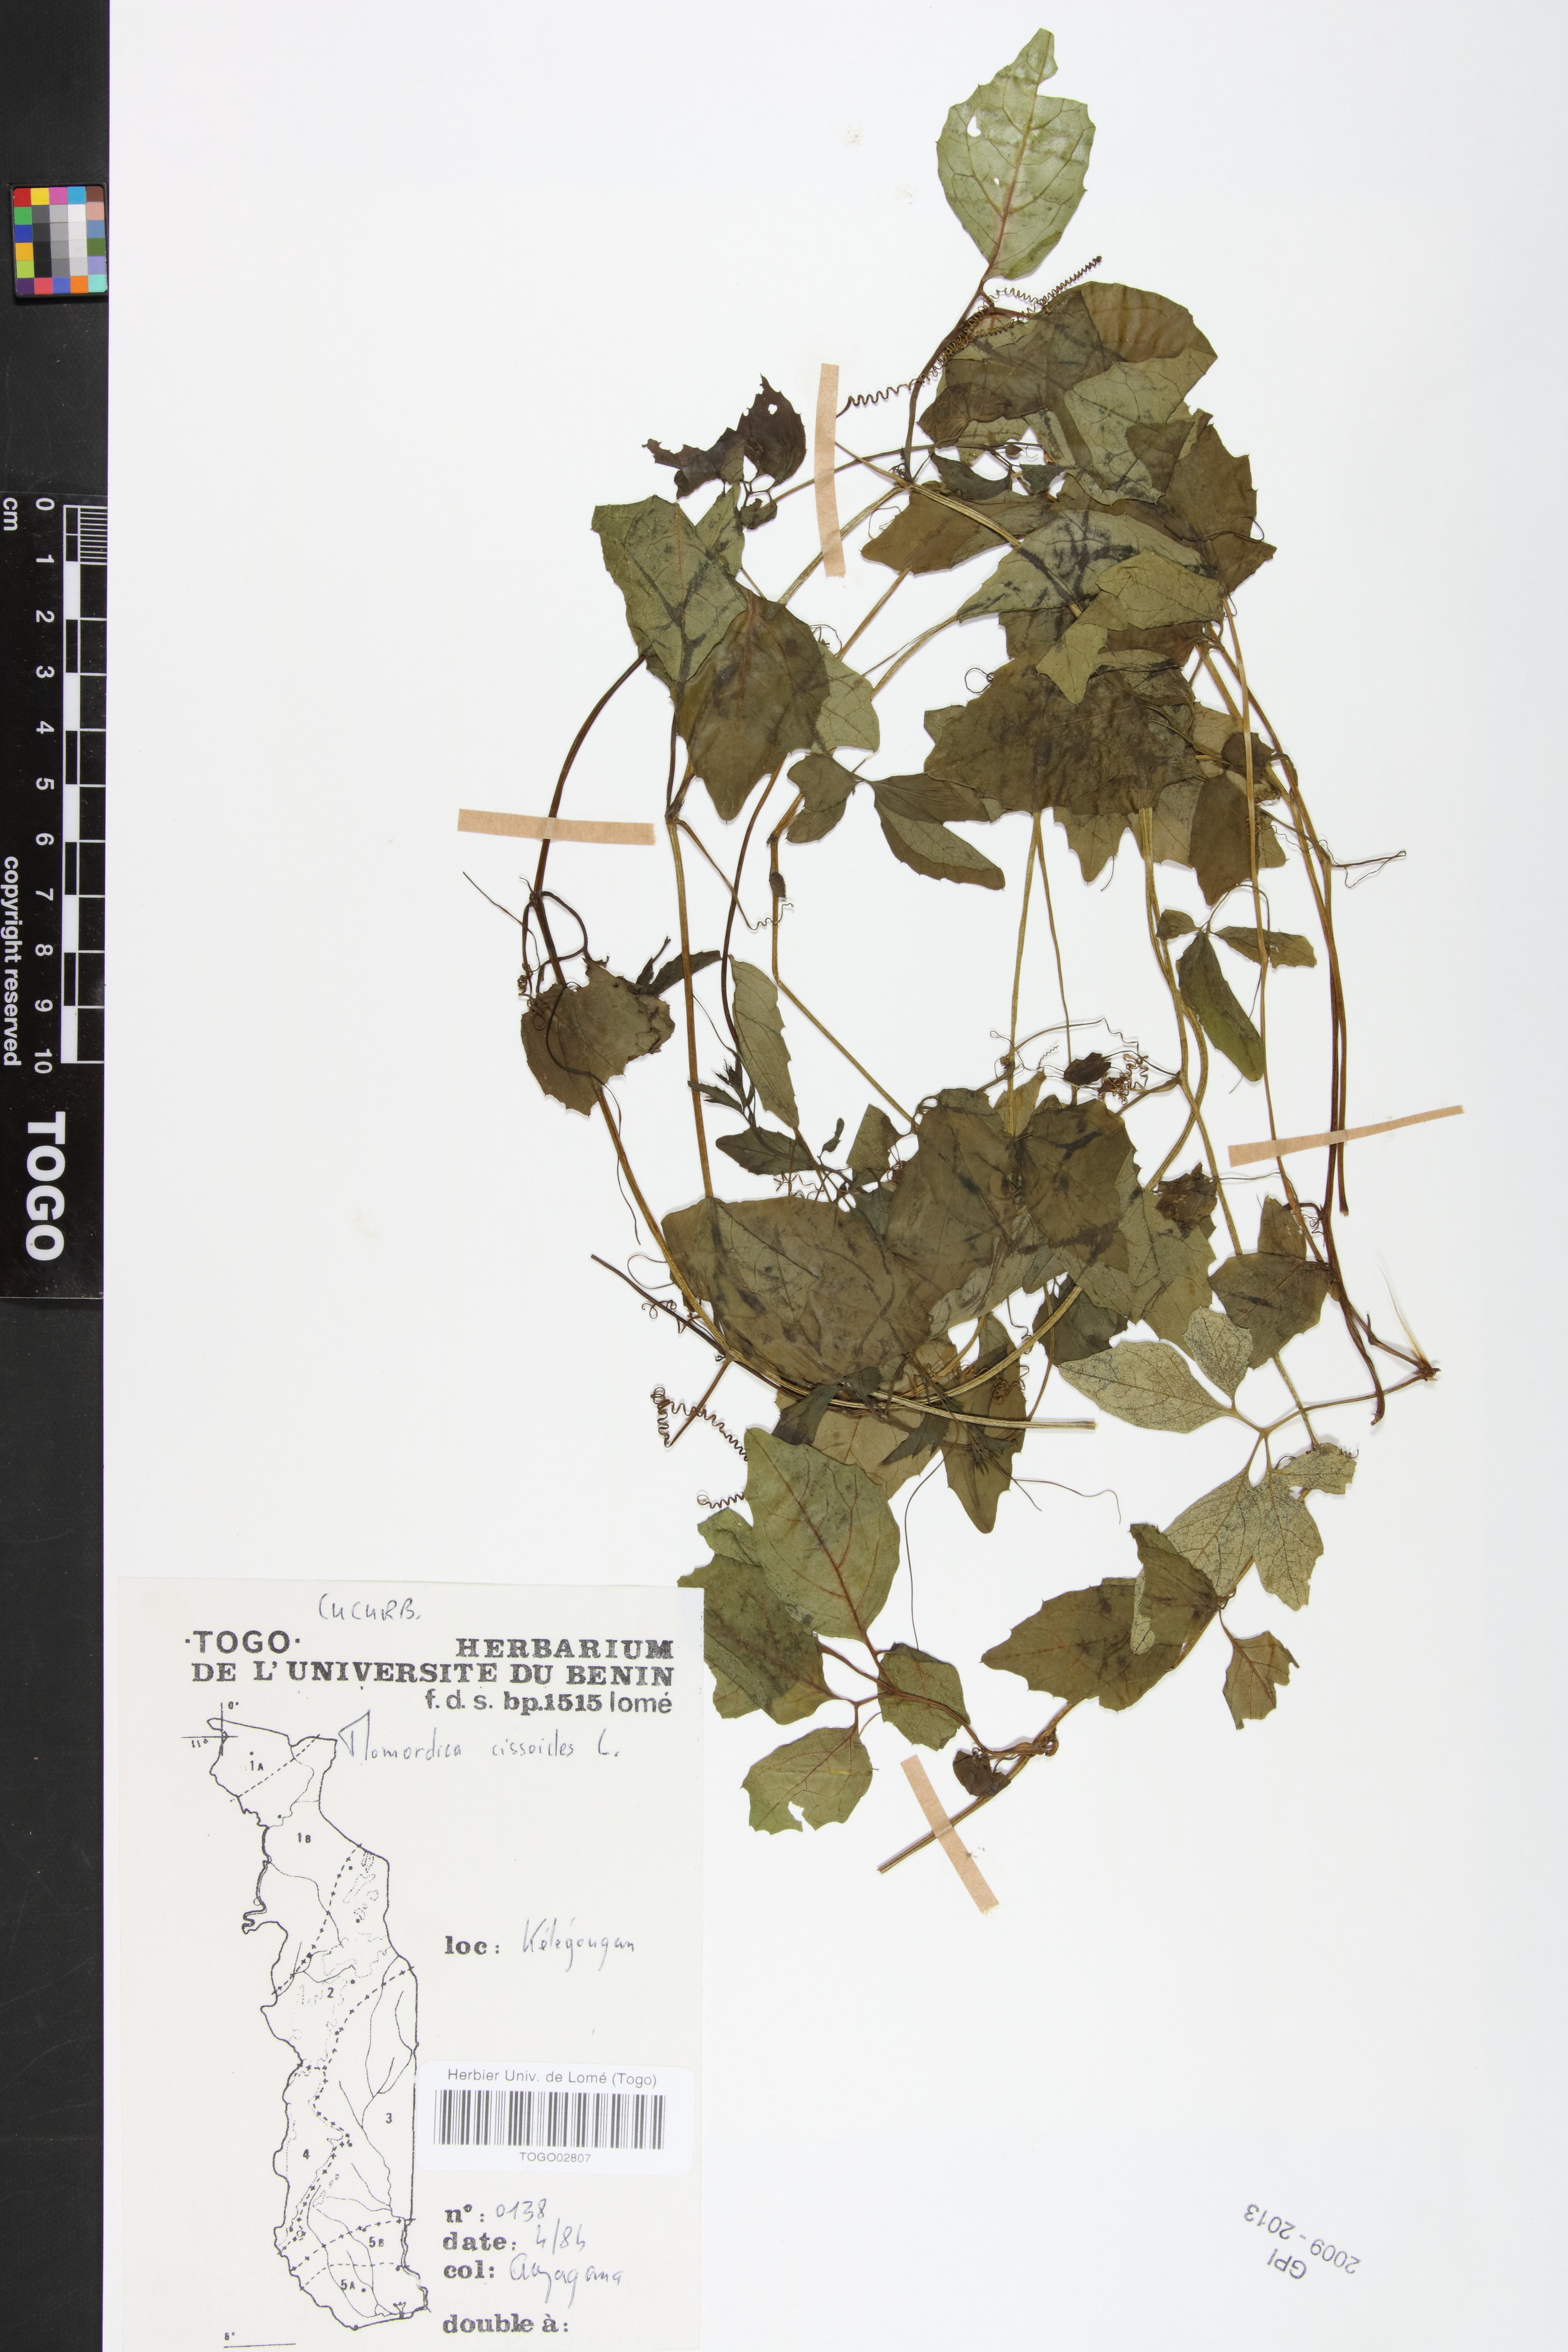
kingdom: Plantae
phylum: Tracheophyta
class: Magnoliopsida
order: Cucurbitales
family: Cucurbitaceae
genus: Momordica
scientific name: Momordica cissoides
